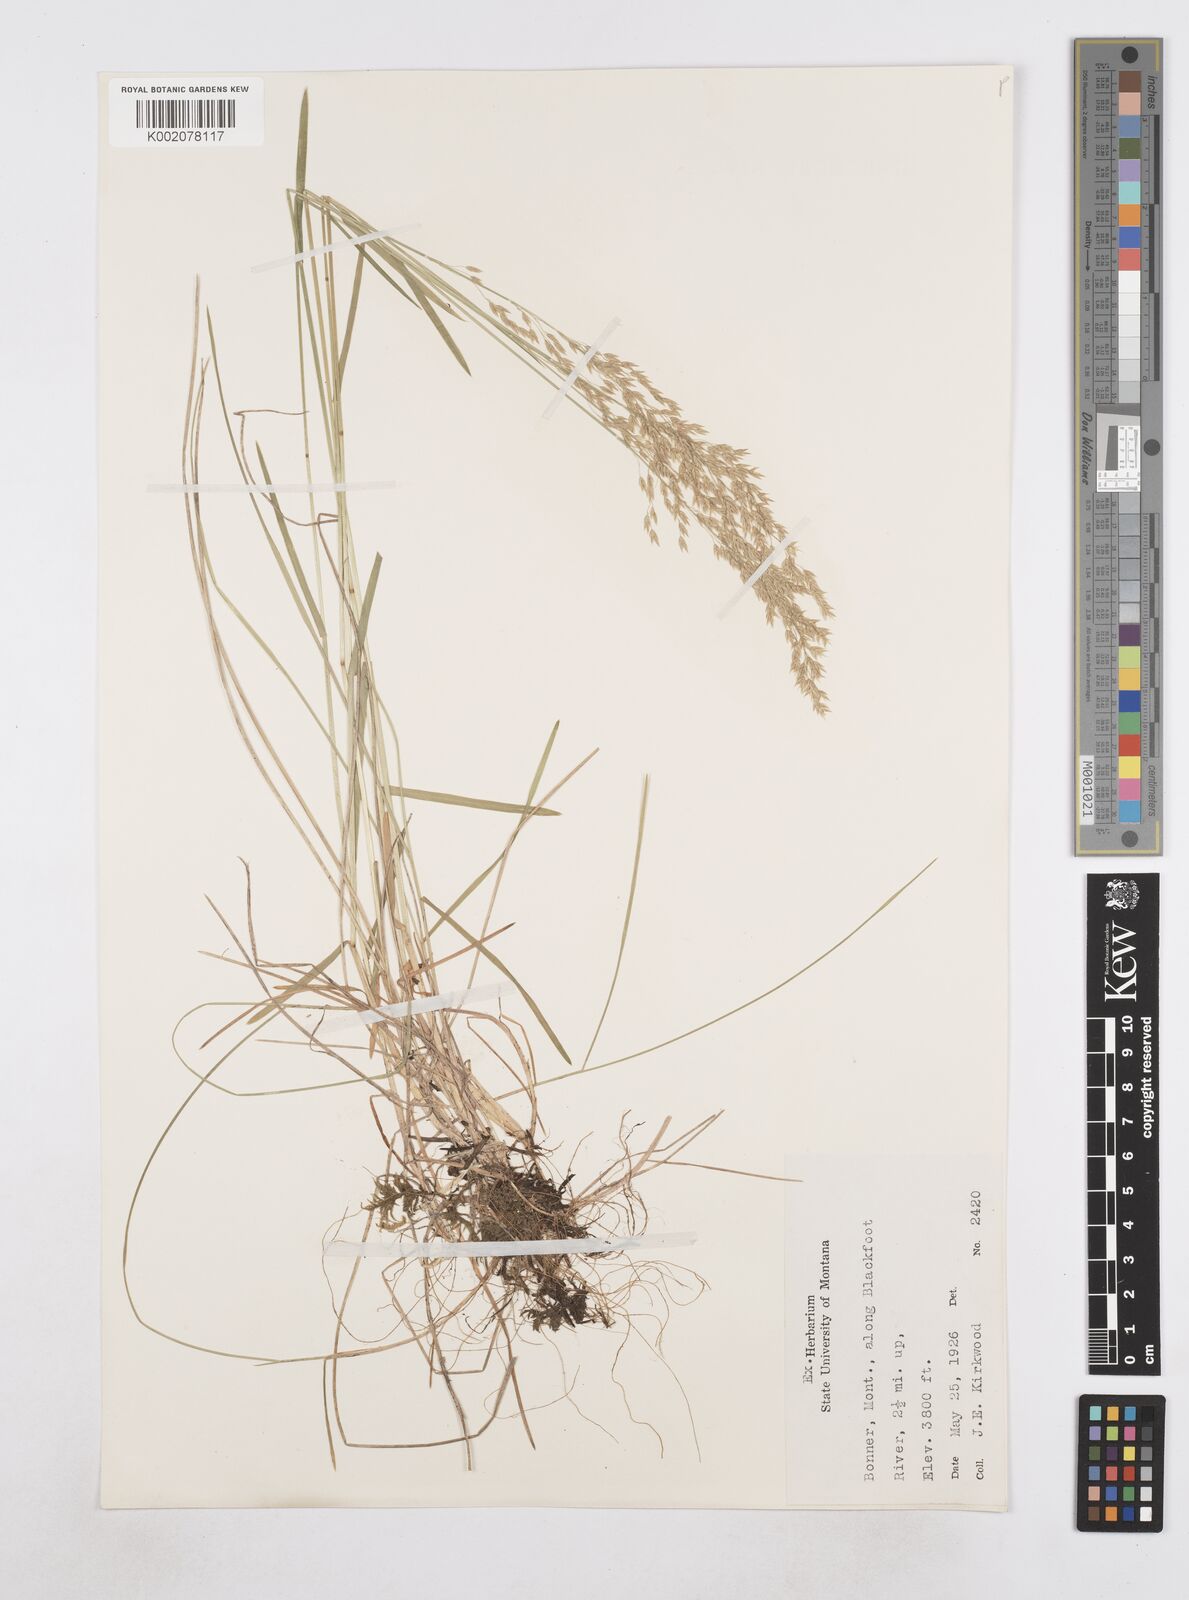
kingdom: Plantae
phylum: Tracheophyta
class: Liliopsida
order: Poales
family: Poaceae
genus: Poa
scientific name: Poa
